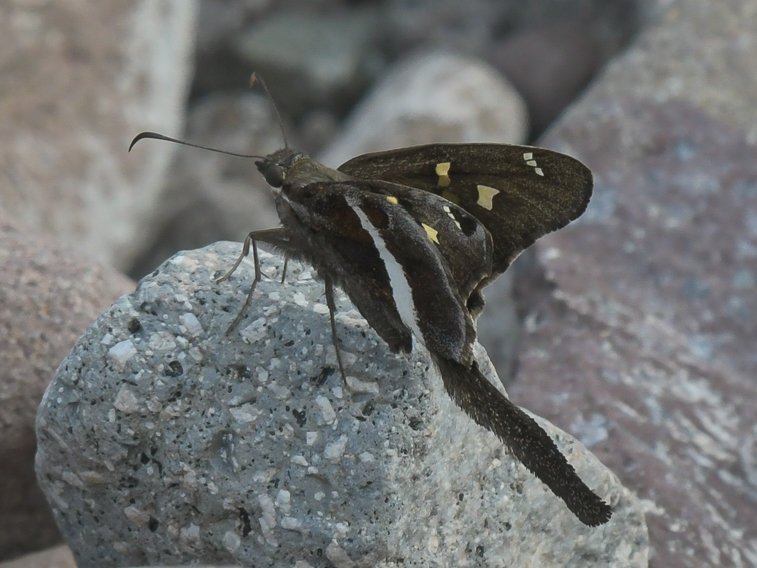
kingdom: Animalia
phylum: Arthropoda
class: Insecta
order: Lepidoptera
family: Hesperiidae
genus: Chioides
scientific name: Chioides catillus
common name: White-striped Longtail
